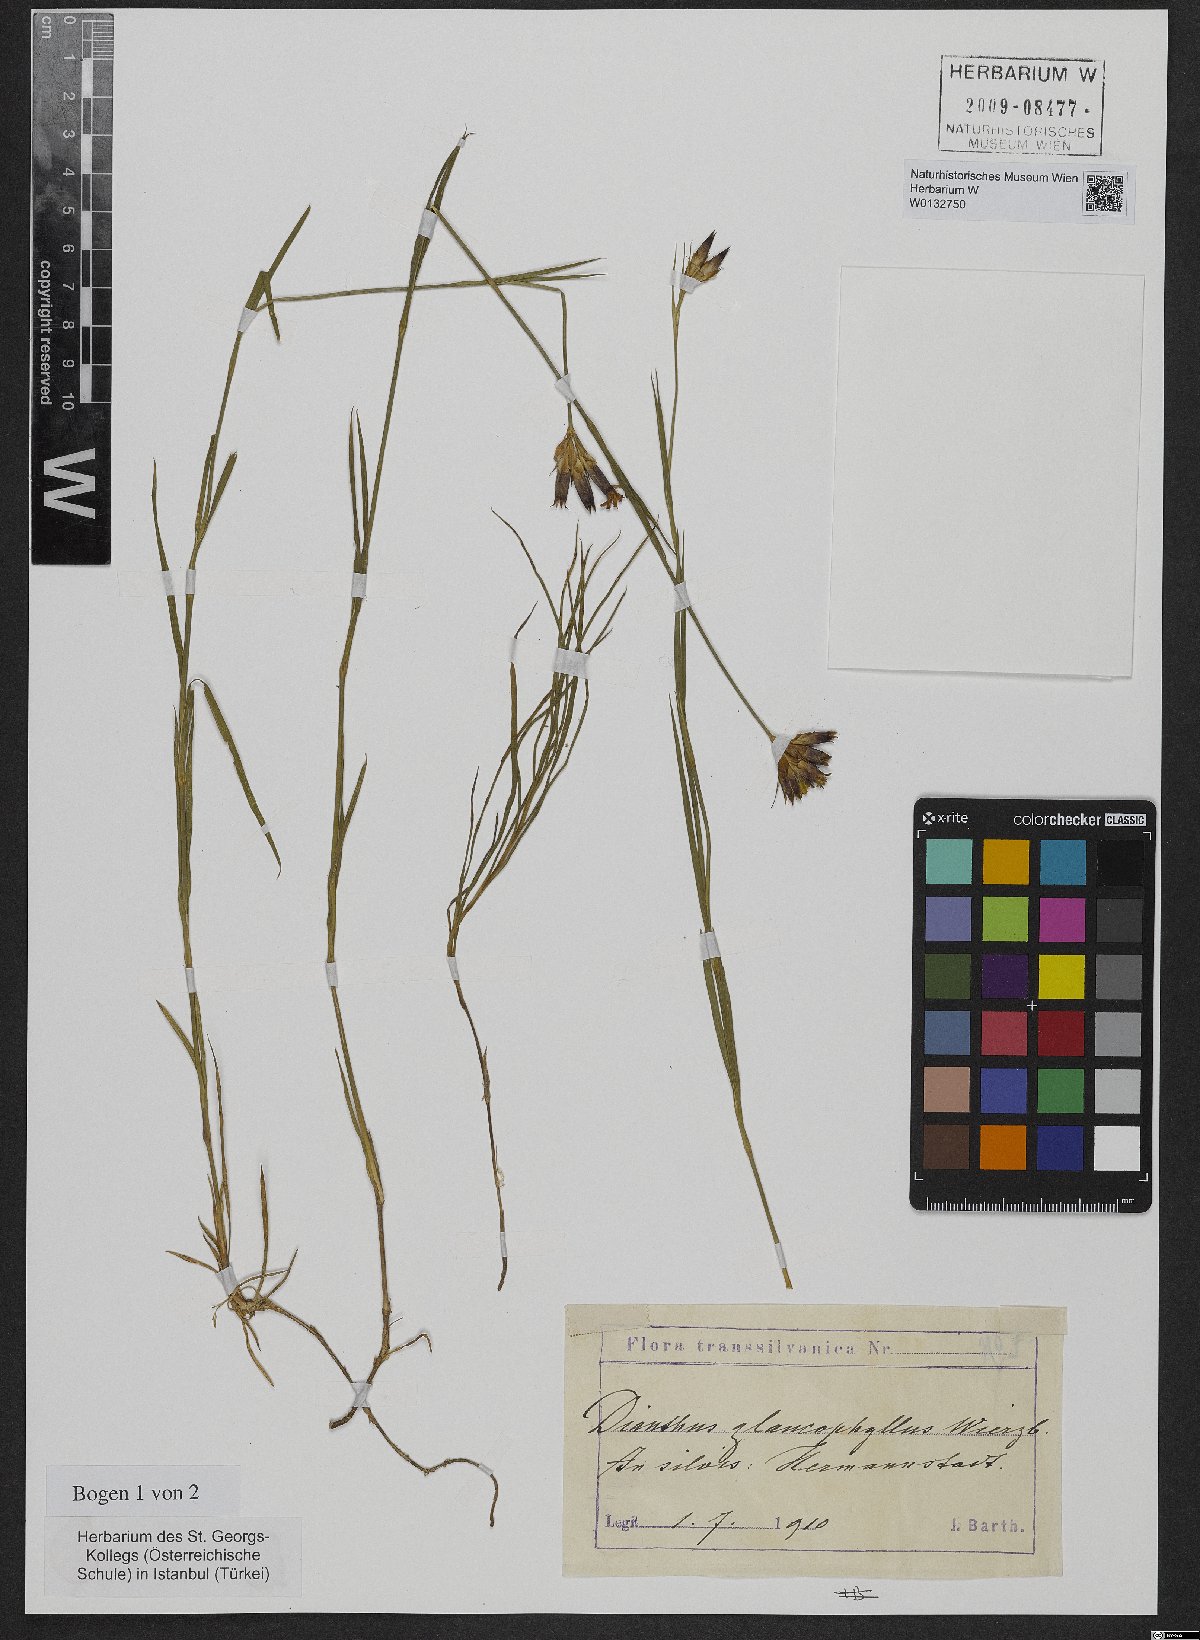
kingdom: Plantae
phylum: Tracheophyta
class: Magnoliopsida
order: Caryophyllales
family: Caryophyllaceae
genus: Dianthus
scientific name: Dianthus balbisii
